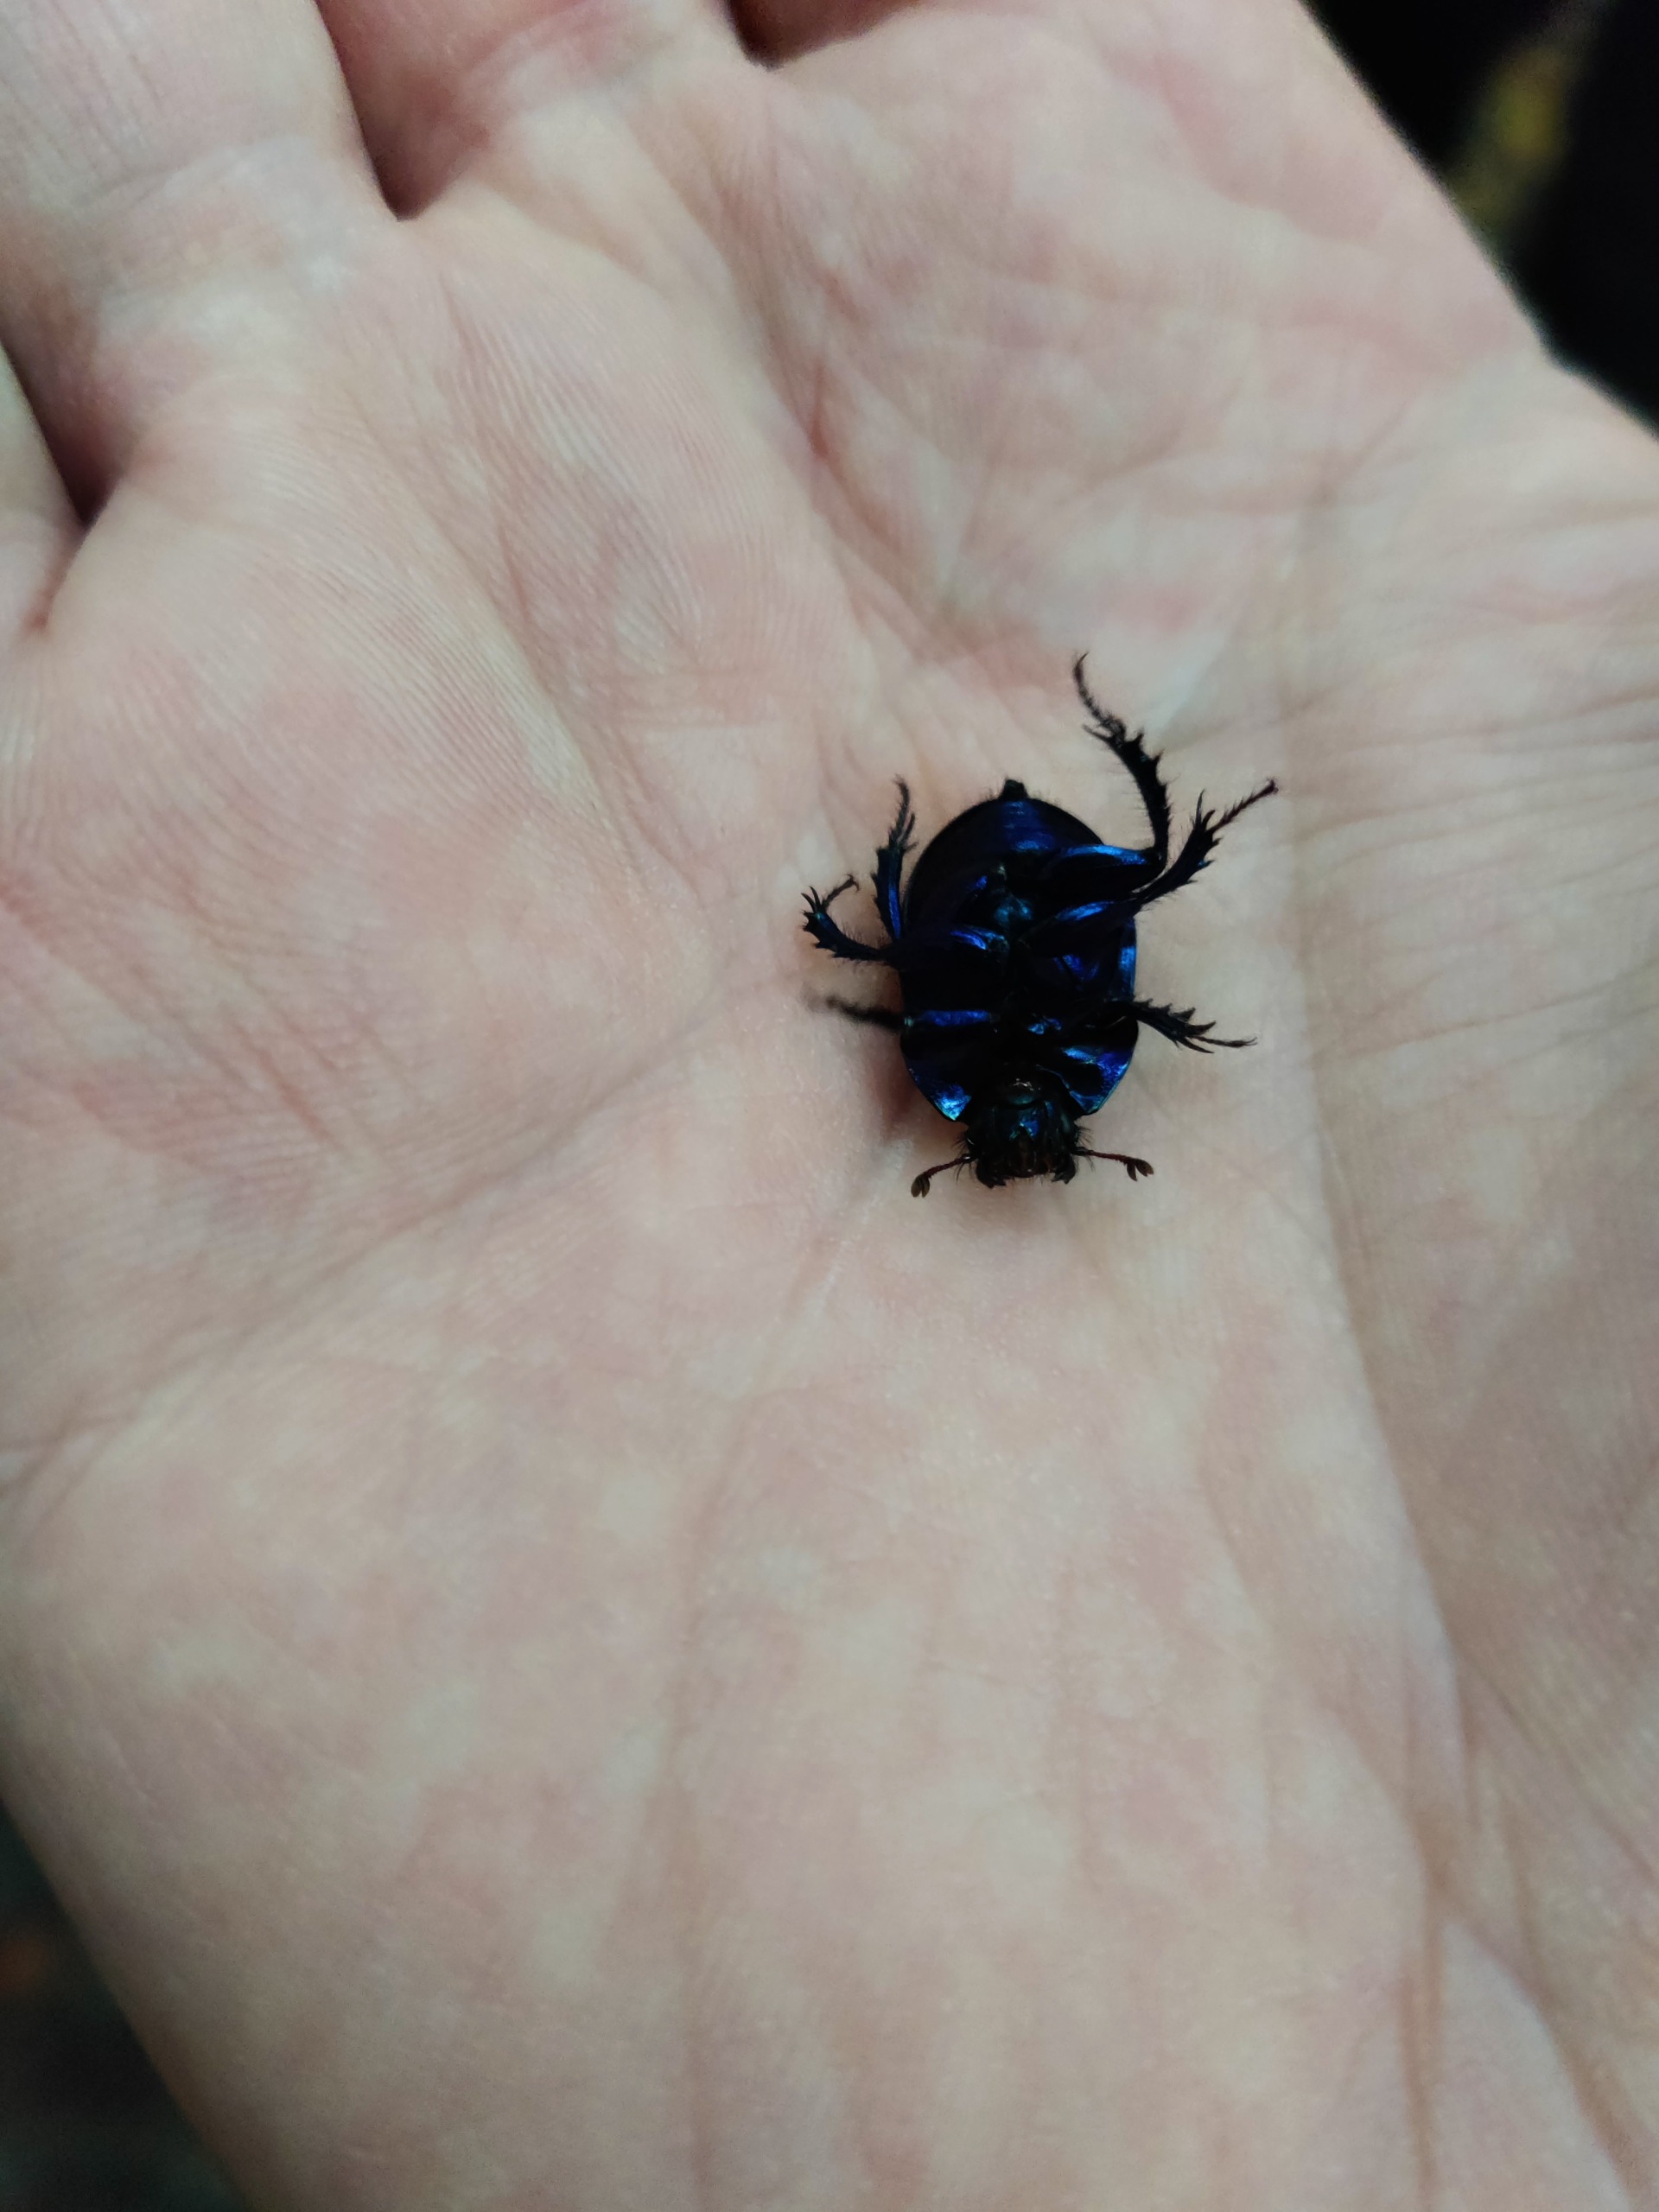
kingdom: Animalia
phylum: Arthropoda
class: Insecta
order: Coleoptera
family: Geotrupidae
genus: Anoplotrupes
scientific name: Anoplotrupes stercorosus
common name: Skovskarnbasse
